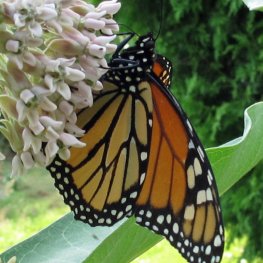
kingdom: Animalia
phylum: Arthropoda
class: Insecta
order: Lepidoptera
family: Nymphalidae
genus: Danaus
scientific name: Danaus plexippus
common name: Monarch
